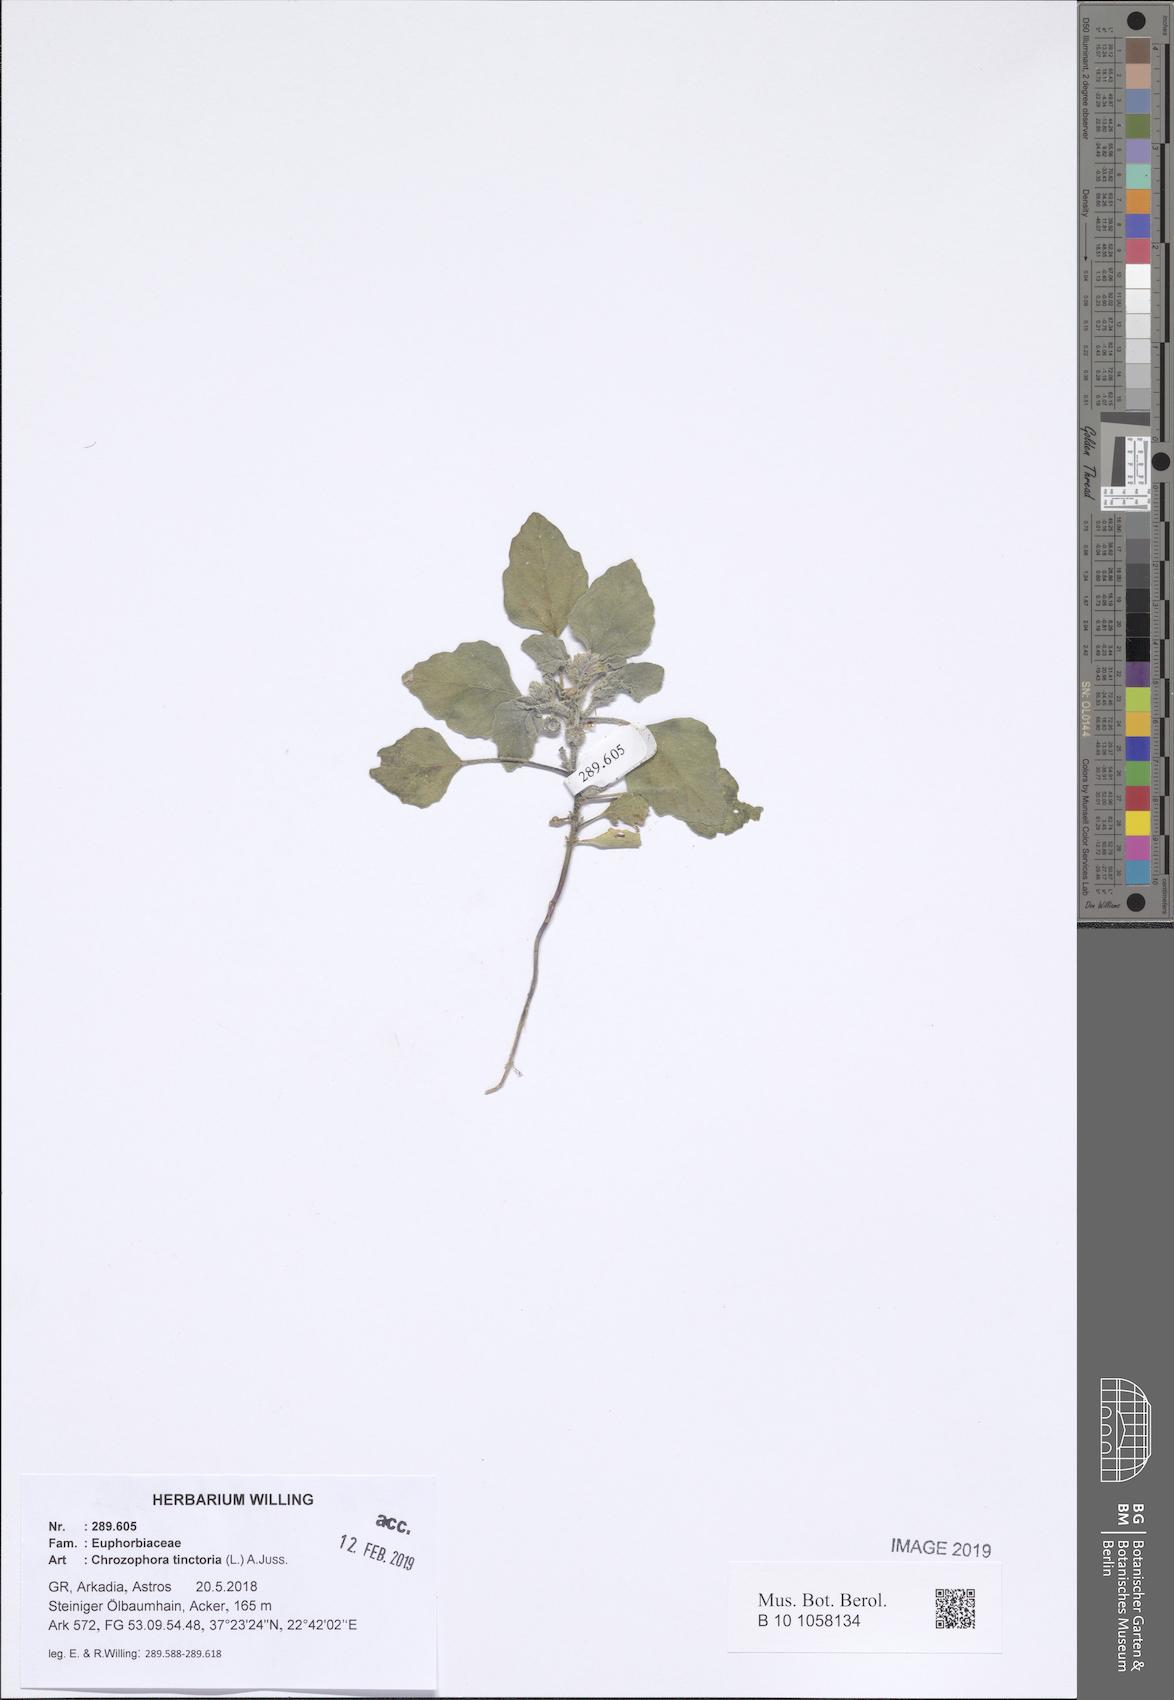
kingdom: Plantae
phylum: Tracheophyta
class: Magnoliopsida
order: Malpighiales
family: Euphorbiaceae
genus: Chrozophora
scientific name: Chrozophora tinctoria
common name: Dyer's litmus
